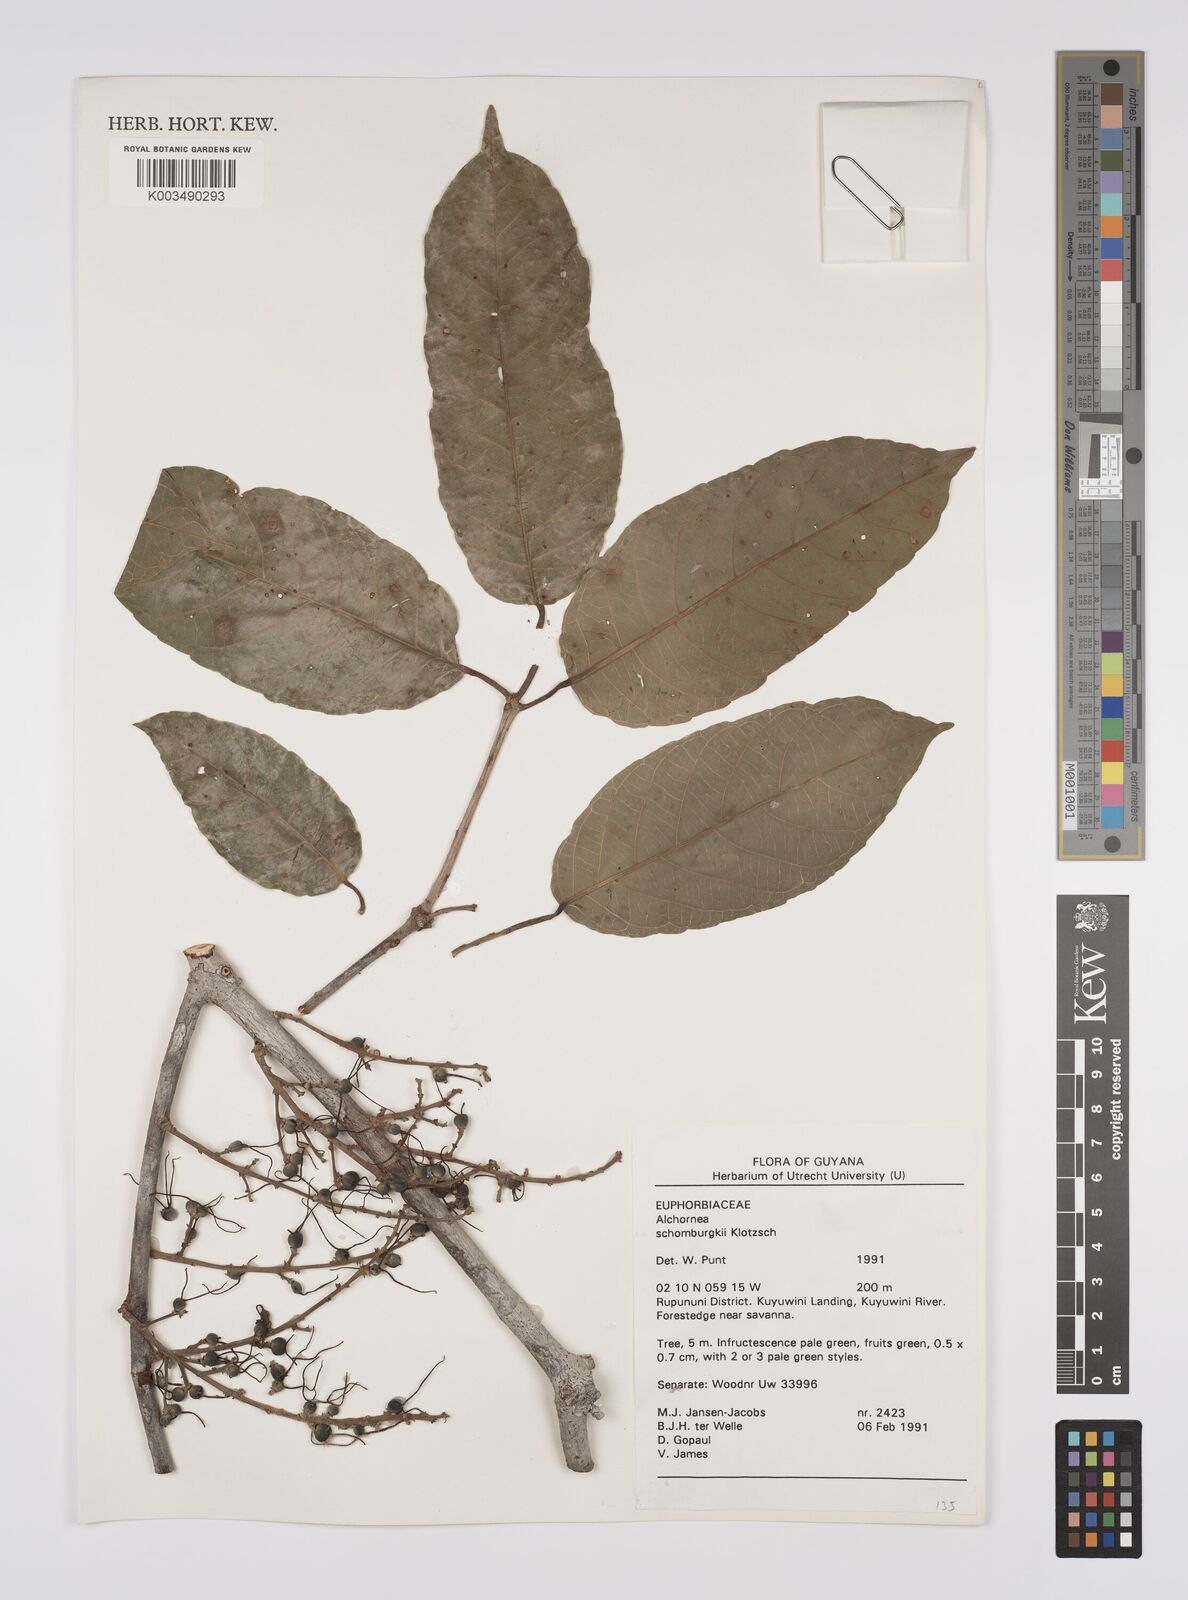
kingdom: Plantae
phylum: Tracheophyta
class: Magnoliopsida
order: Malpighiales
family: Euphorbiaceae
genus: Alchornea
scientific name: Alchornea discolor
